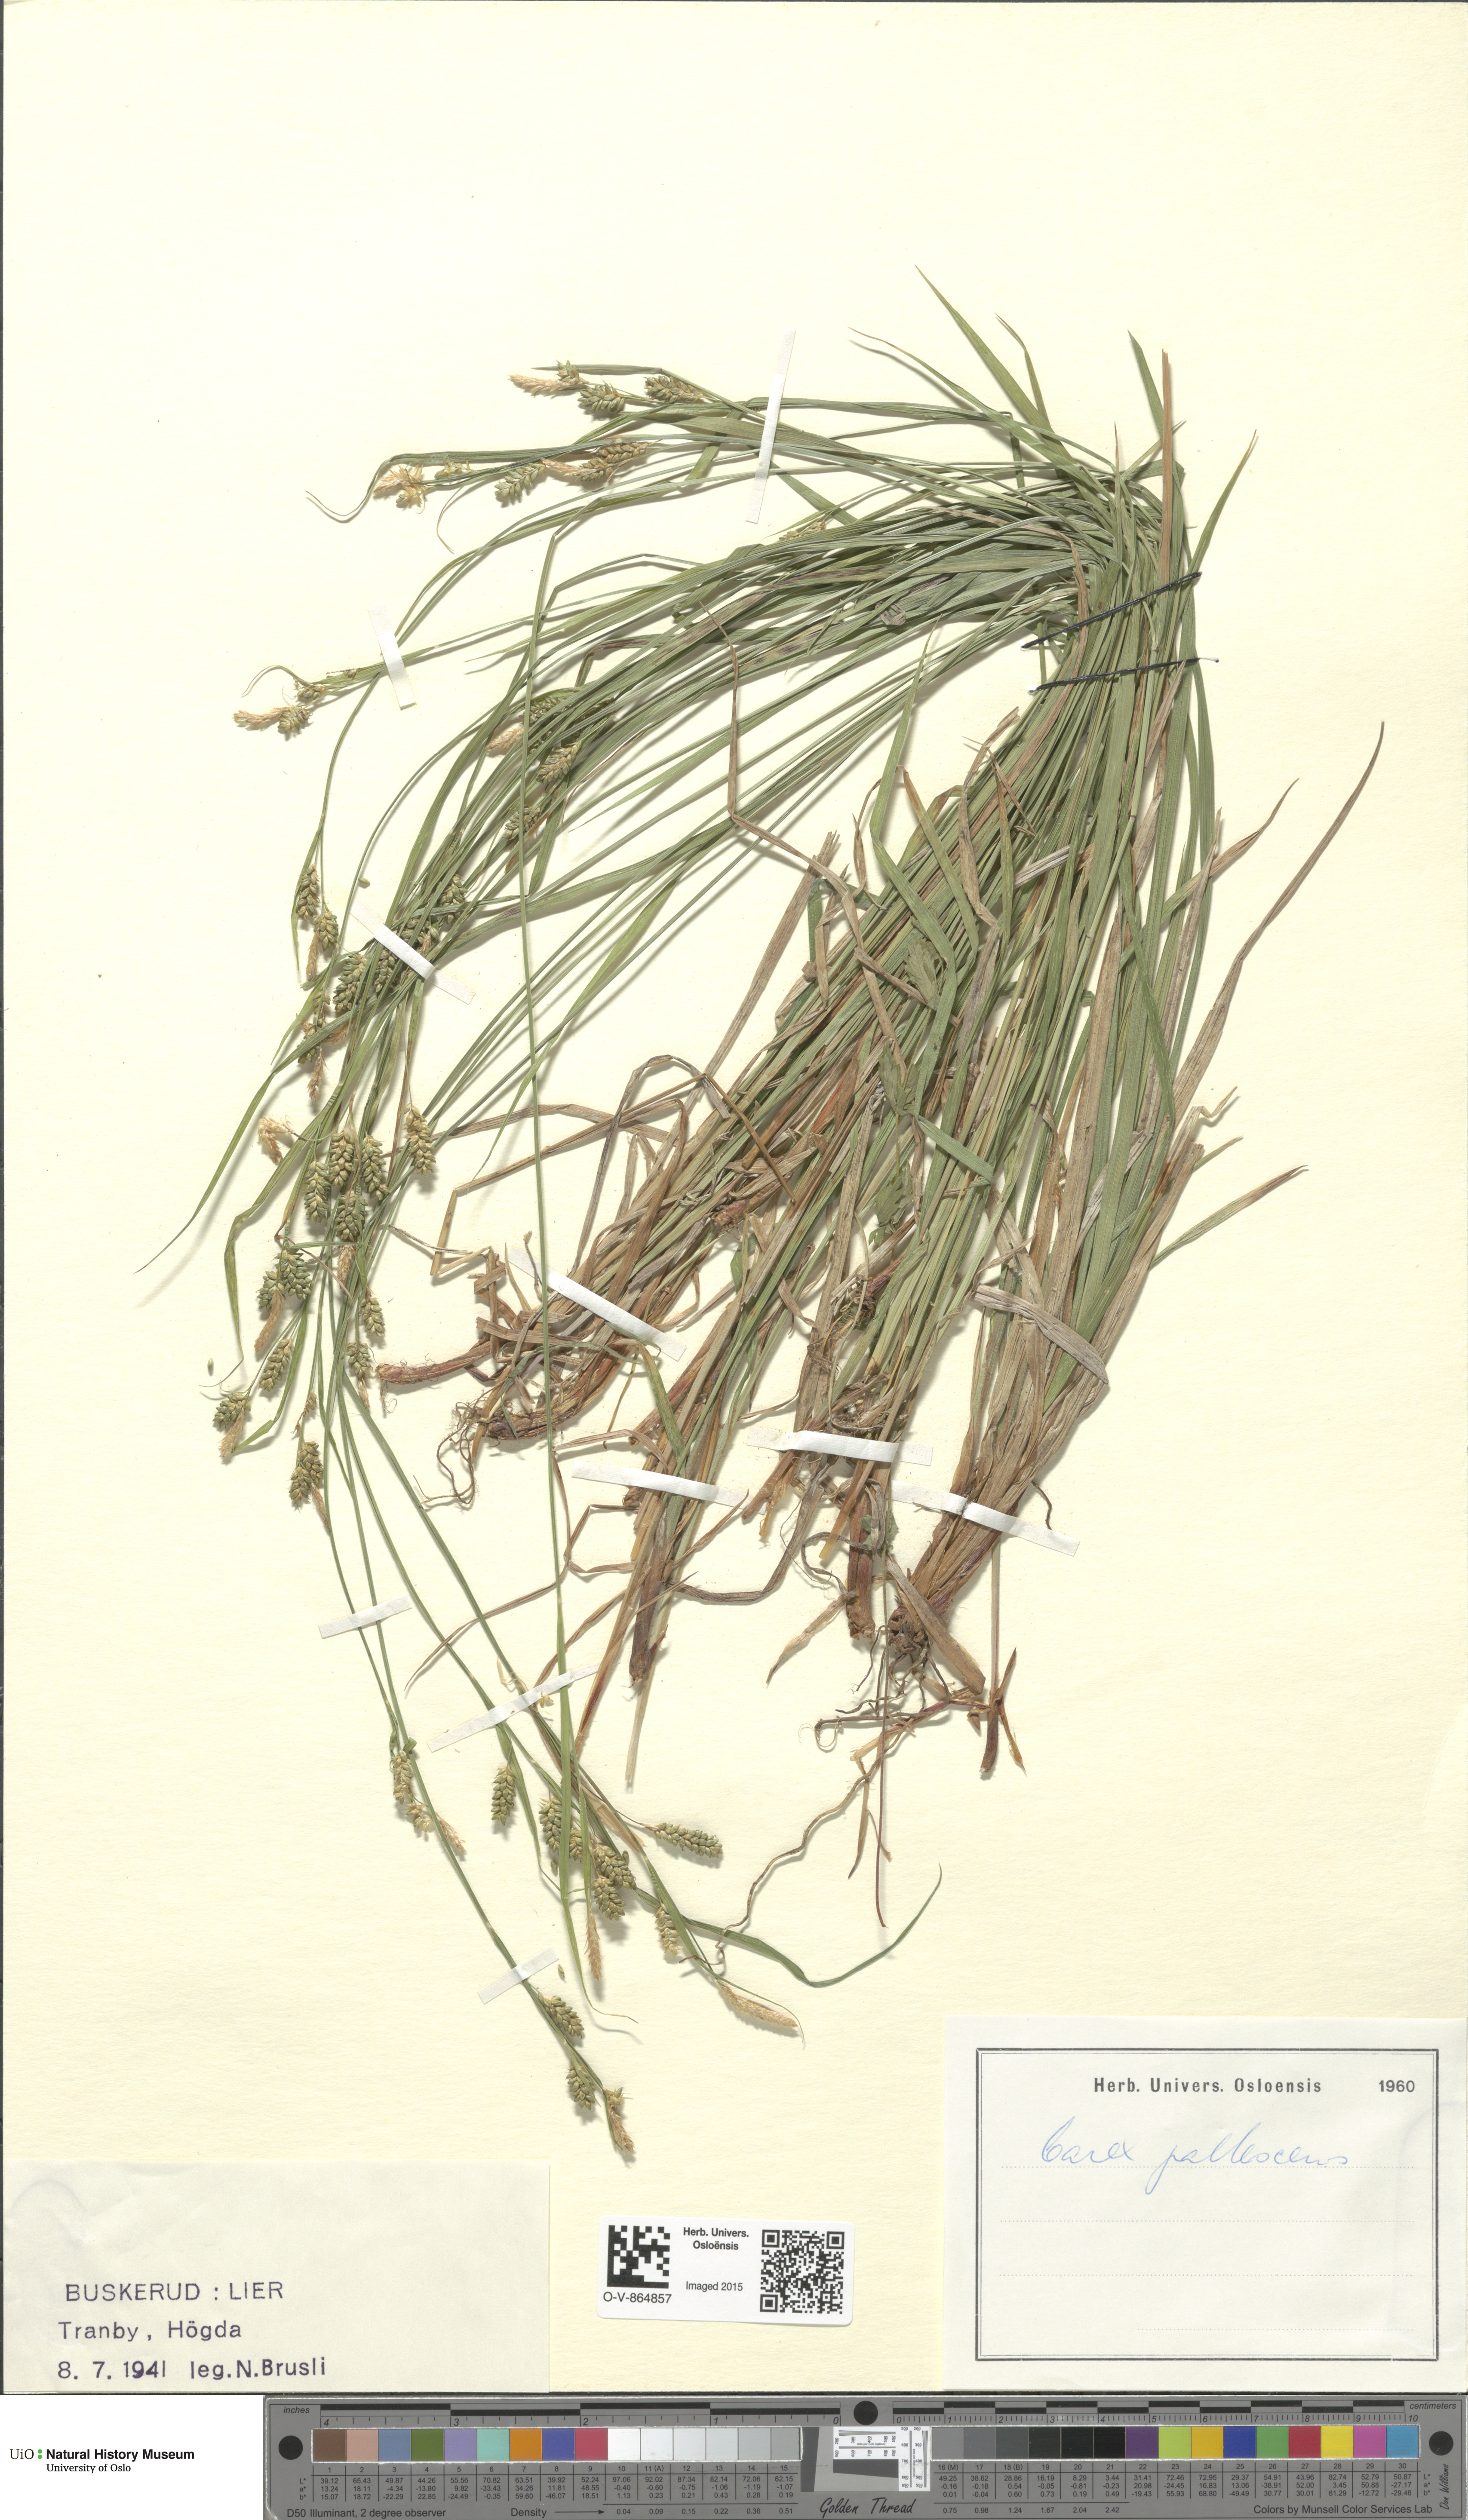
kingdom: Plantae
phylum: Tracheophyta
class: Liliopsida
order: Poales
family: Cyperaceae
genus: Carex
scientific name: Carex pallescens
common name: Pale sedge
